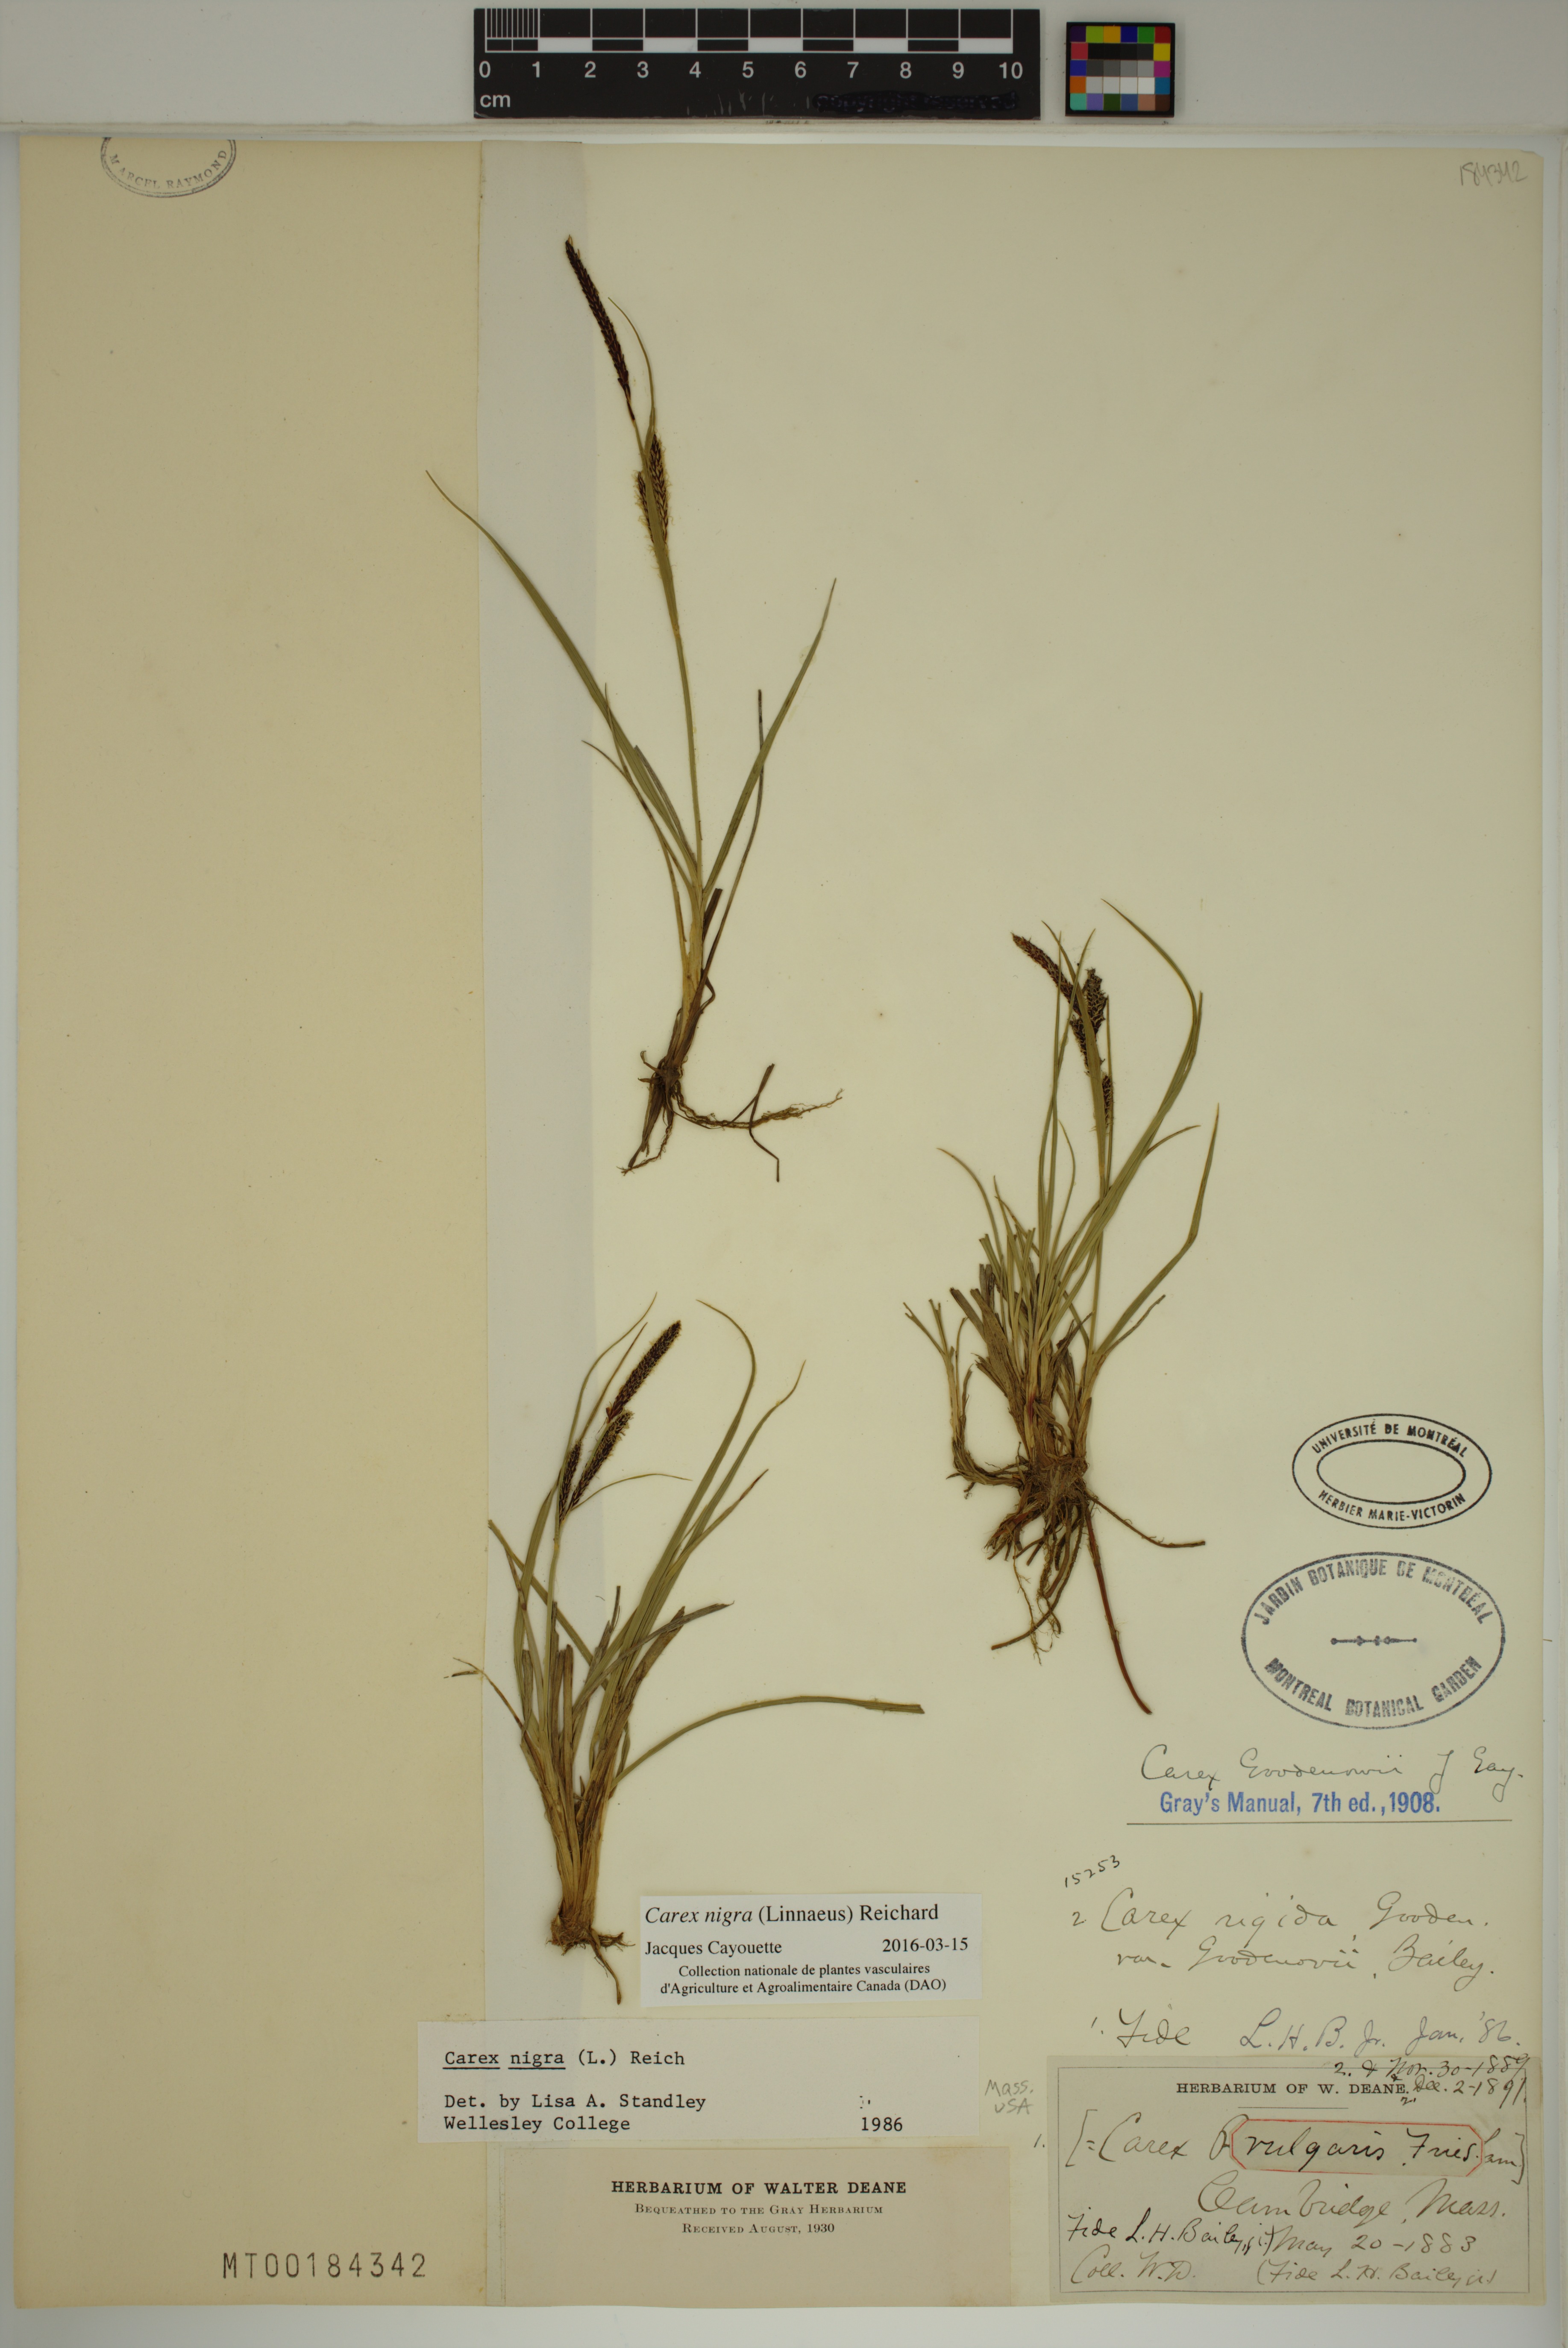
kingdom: Plantae
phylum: Tracheophyta
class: Liliopsida
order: Poales
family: Cyperaceae
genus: Carex
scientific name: Carex nigra
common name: Common sedge
